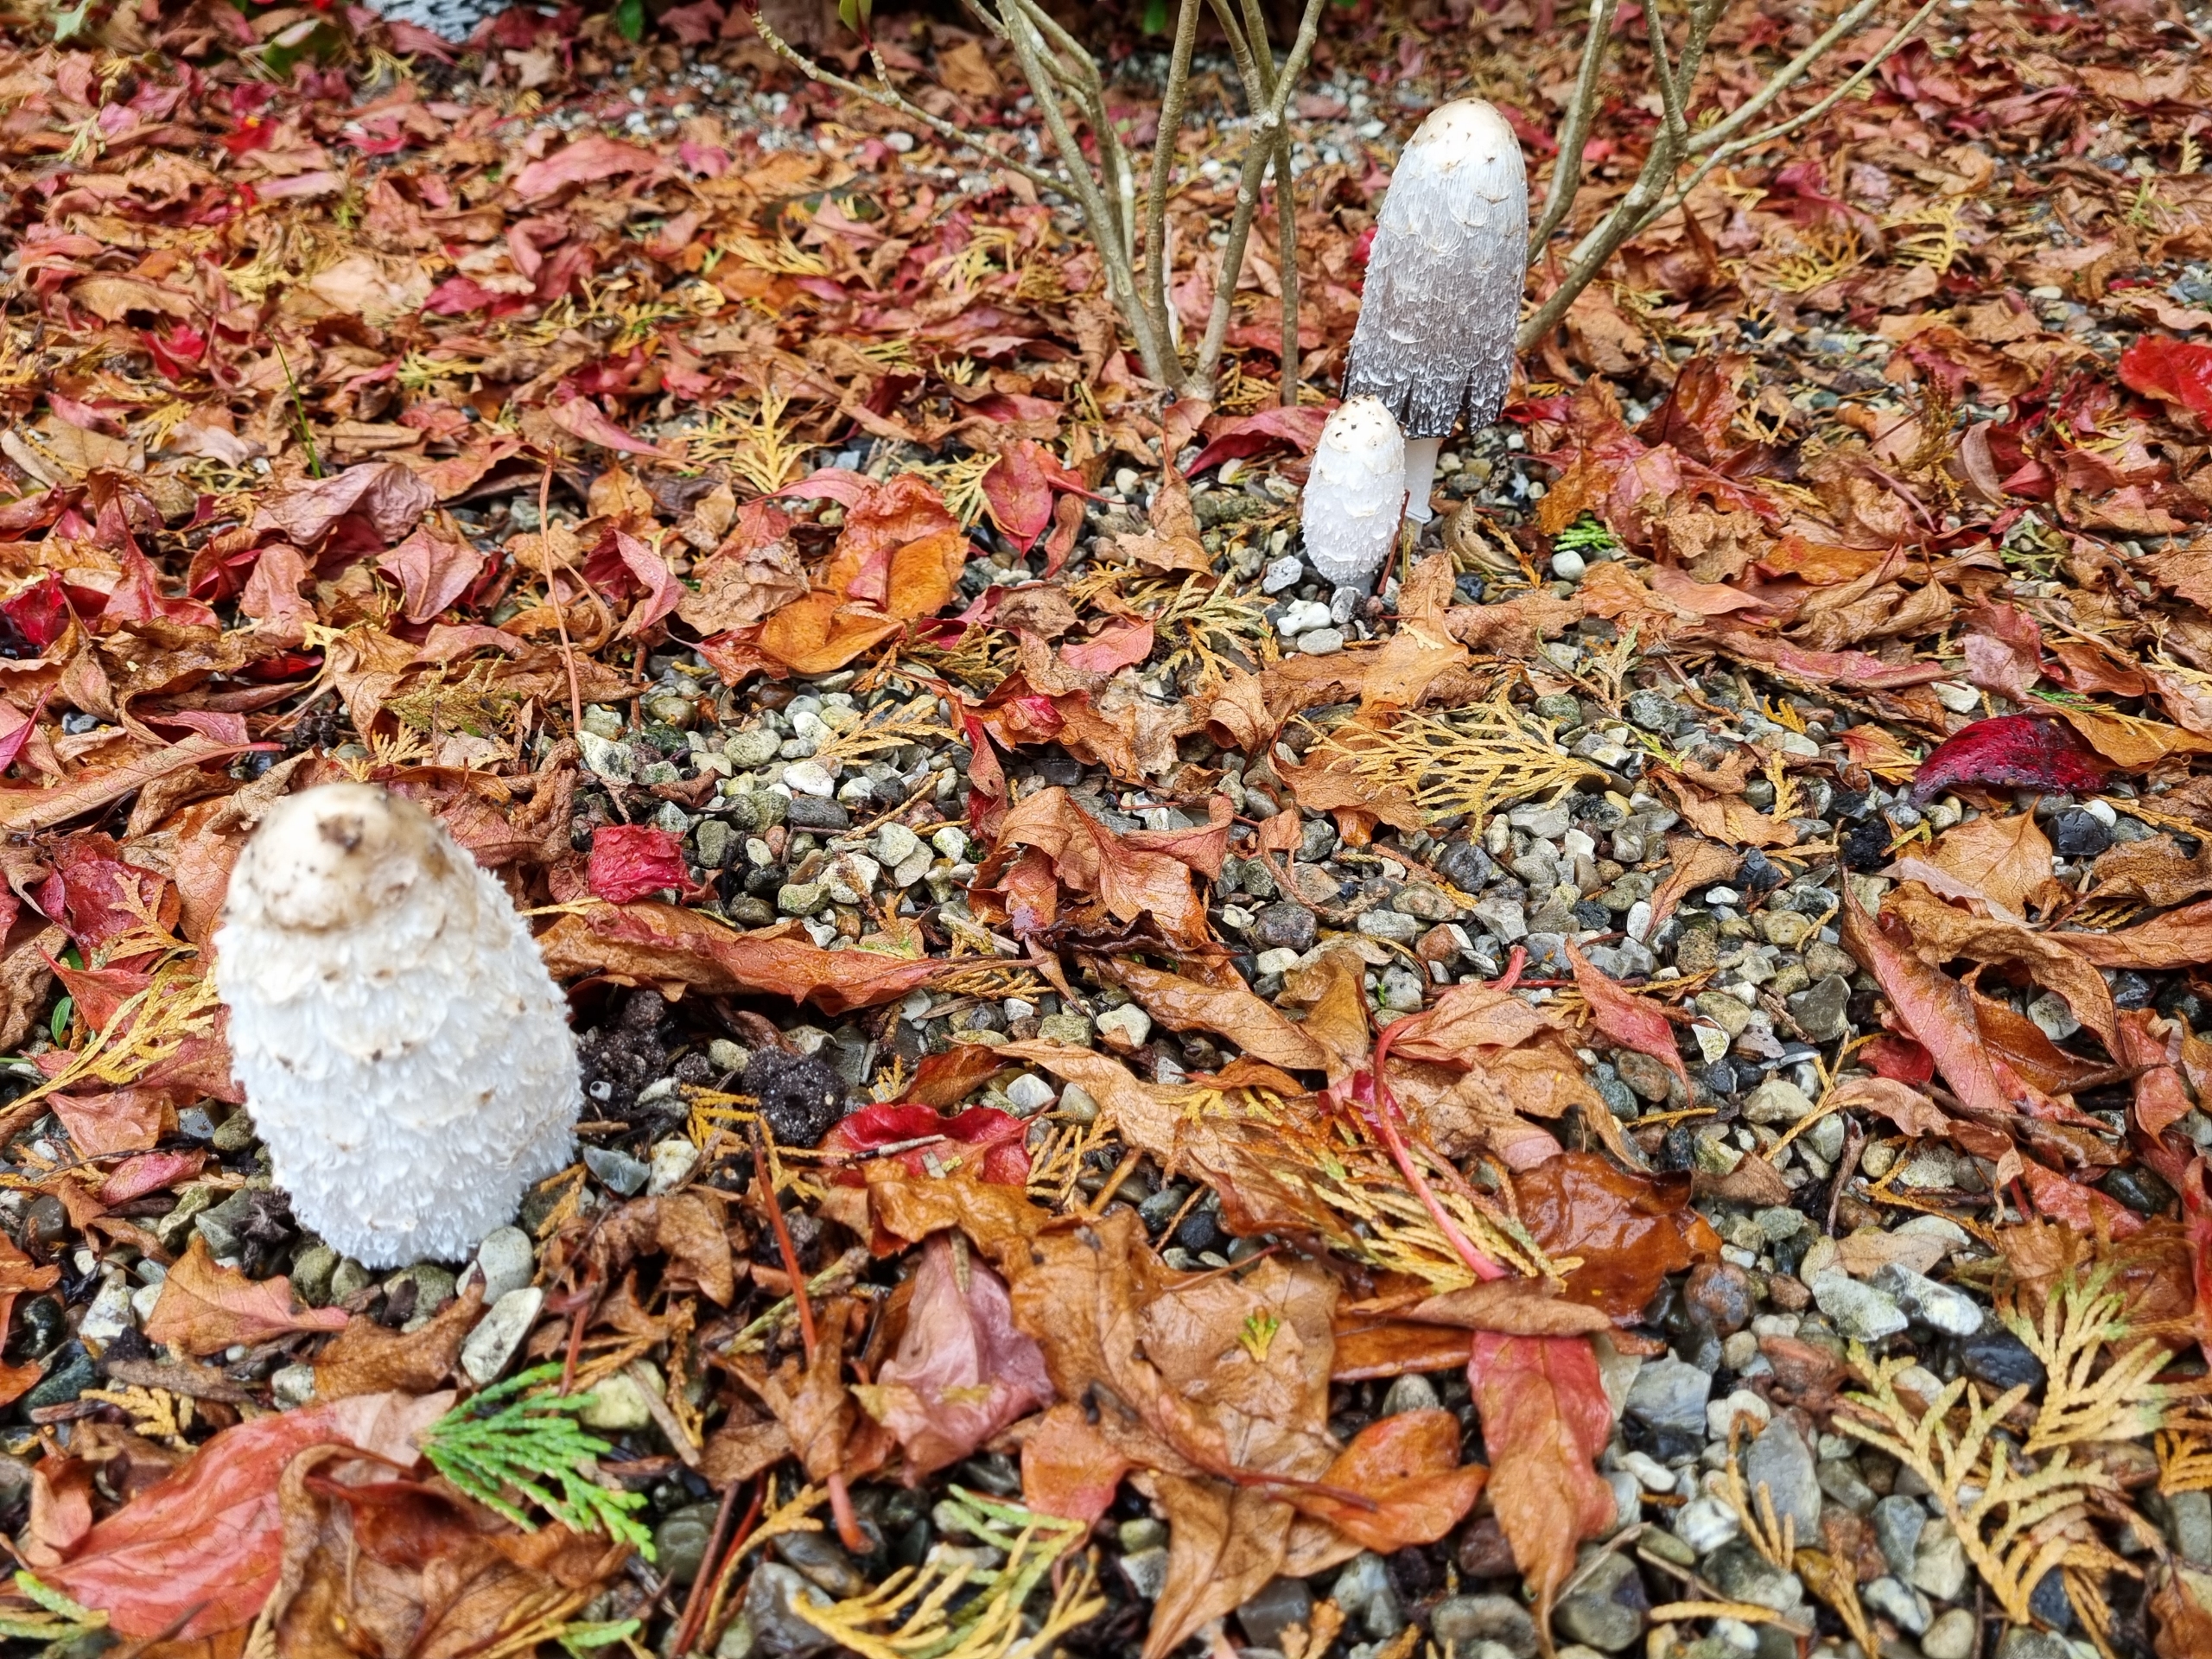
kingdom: Fungi
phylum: Basidiomycota
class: Agaricomycetes
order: Agaricales
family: Agaricaceae
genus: Coprinus
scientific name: Coprinus comatus
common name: Stor parykhat
